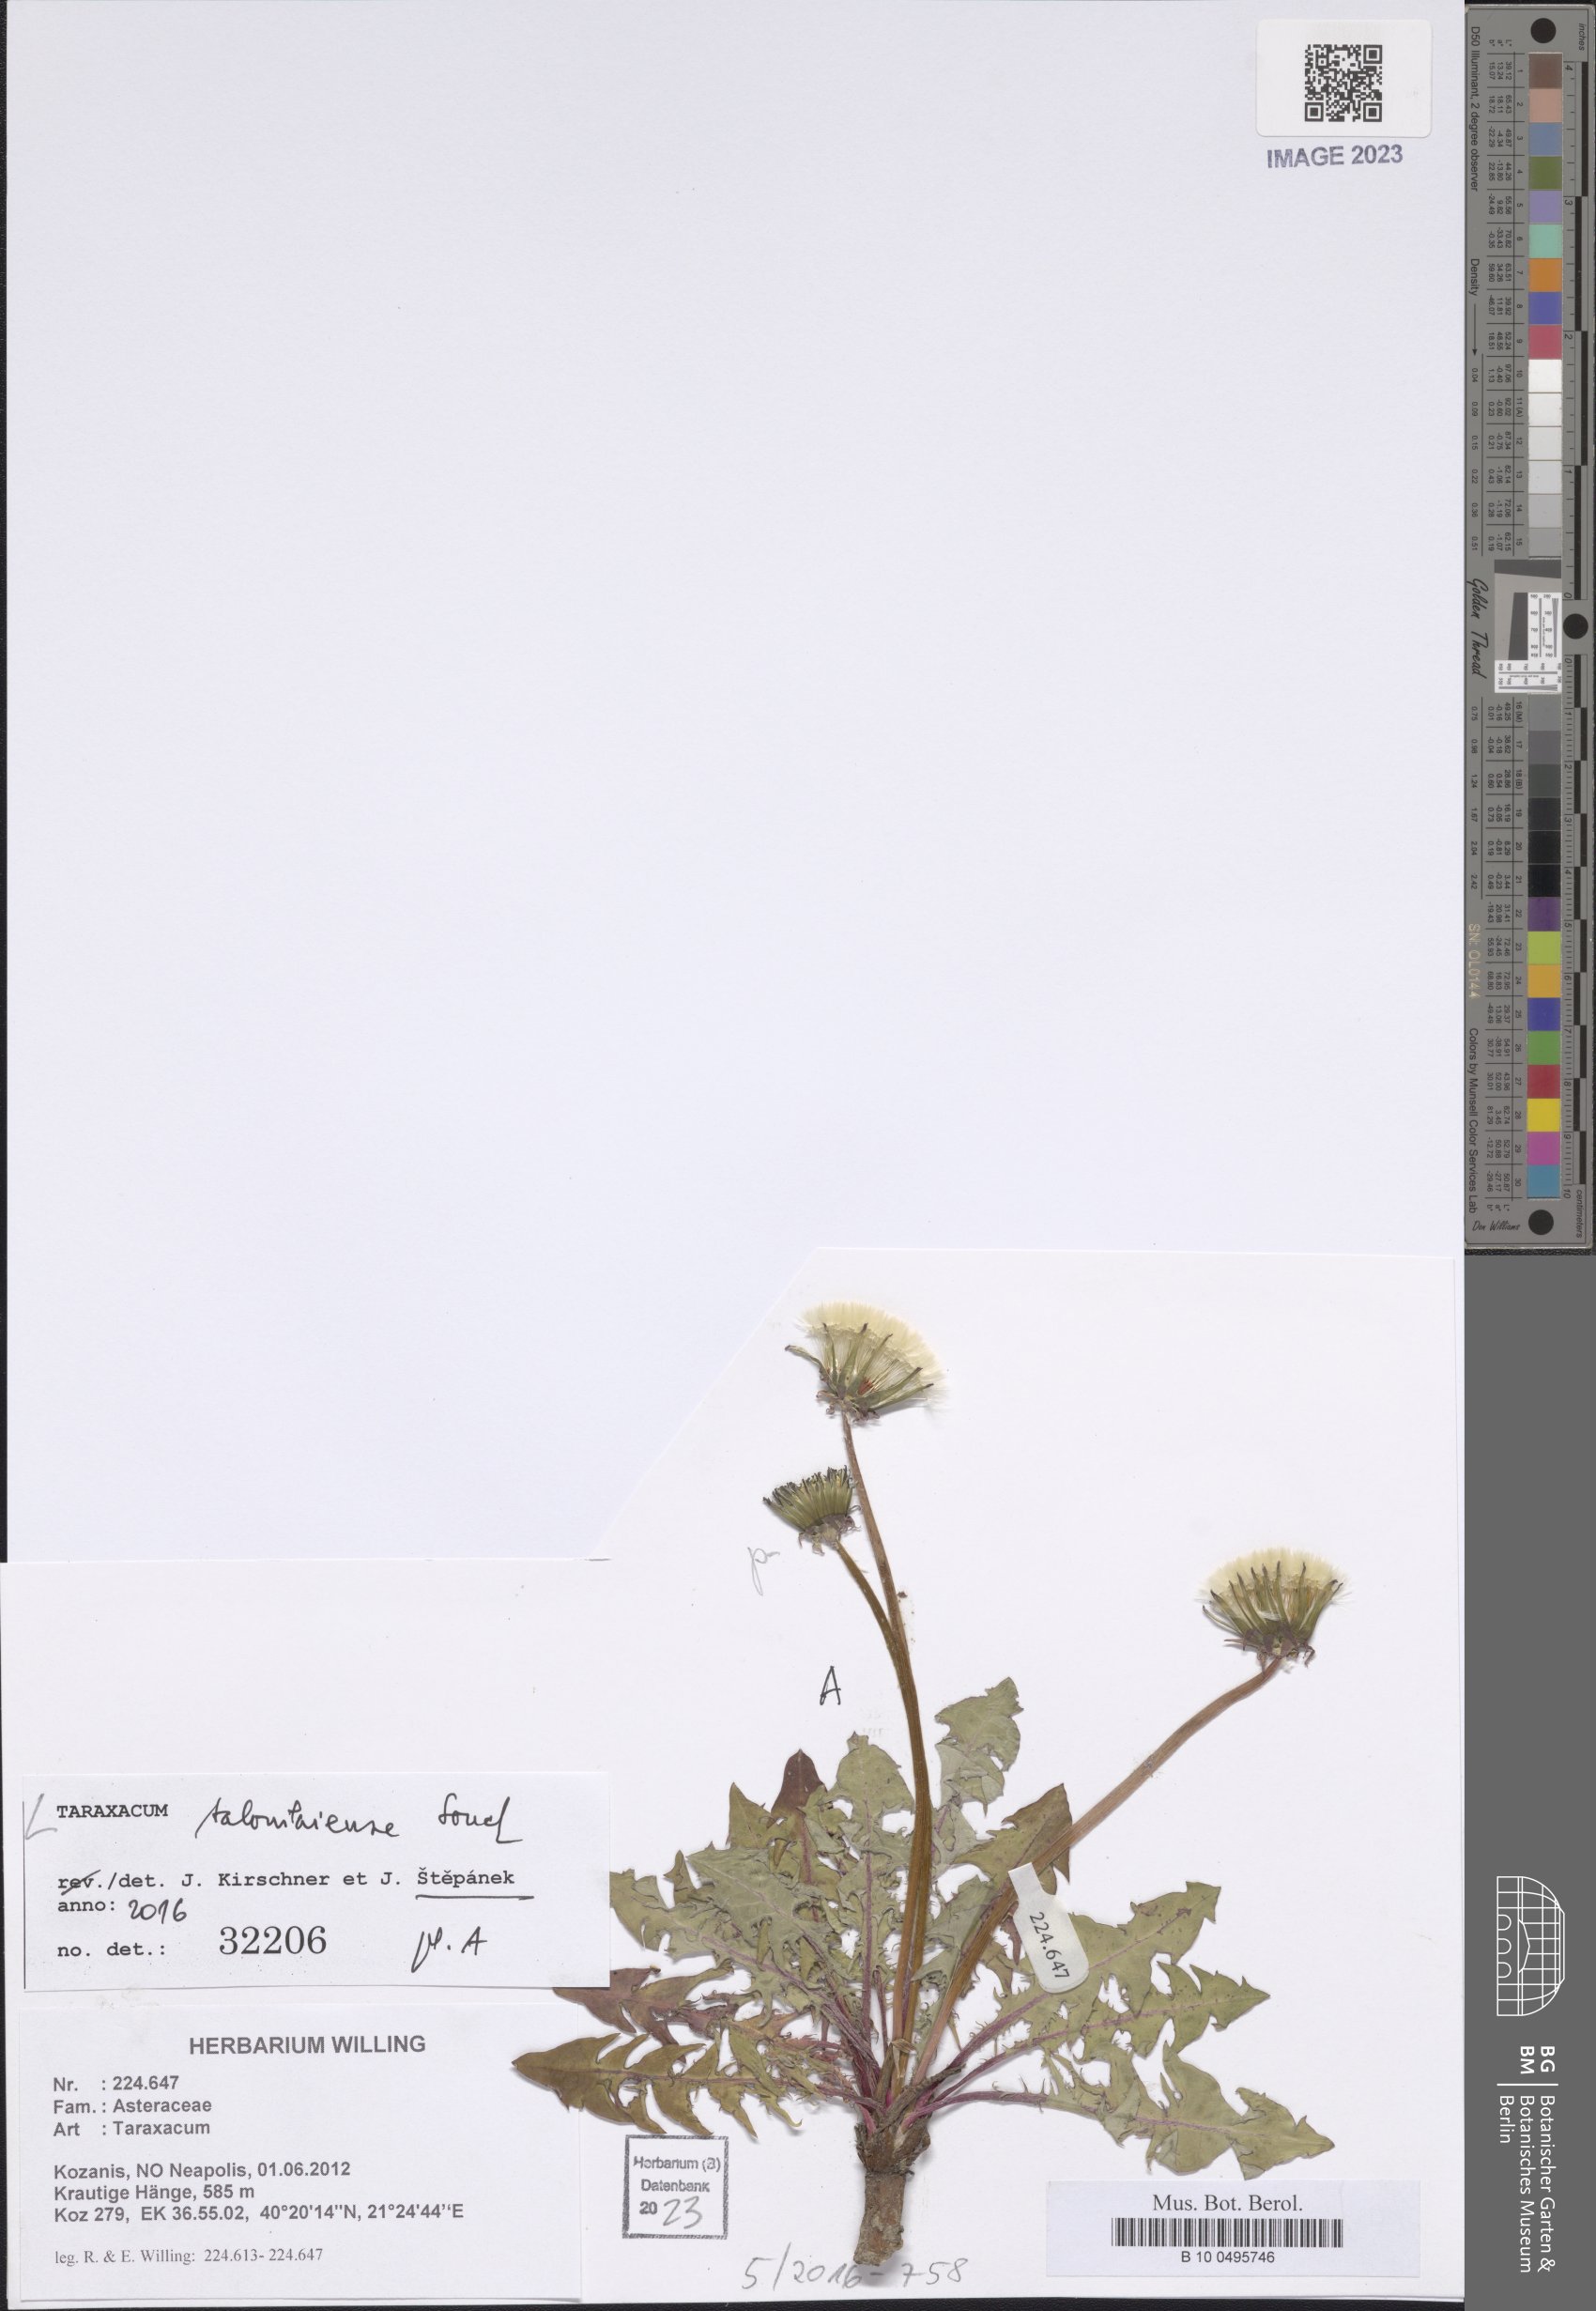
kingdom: Plantae
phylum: Tracheophyta
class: Magnoliopsida
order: Asterales
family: Asteraceae
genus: Taraxacum
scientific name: Taraxacum salonikiense
